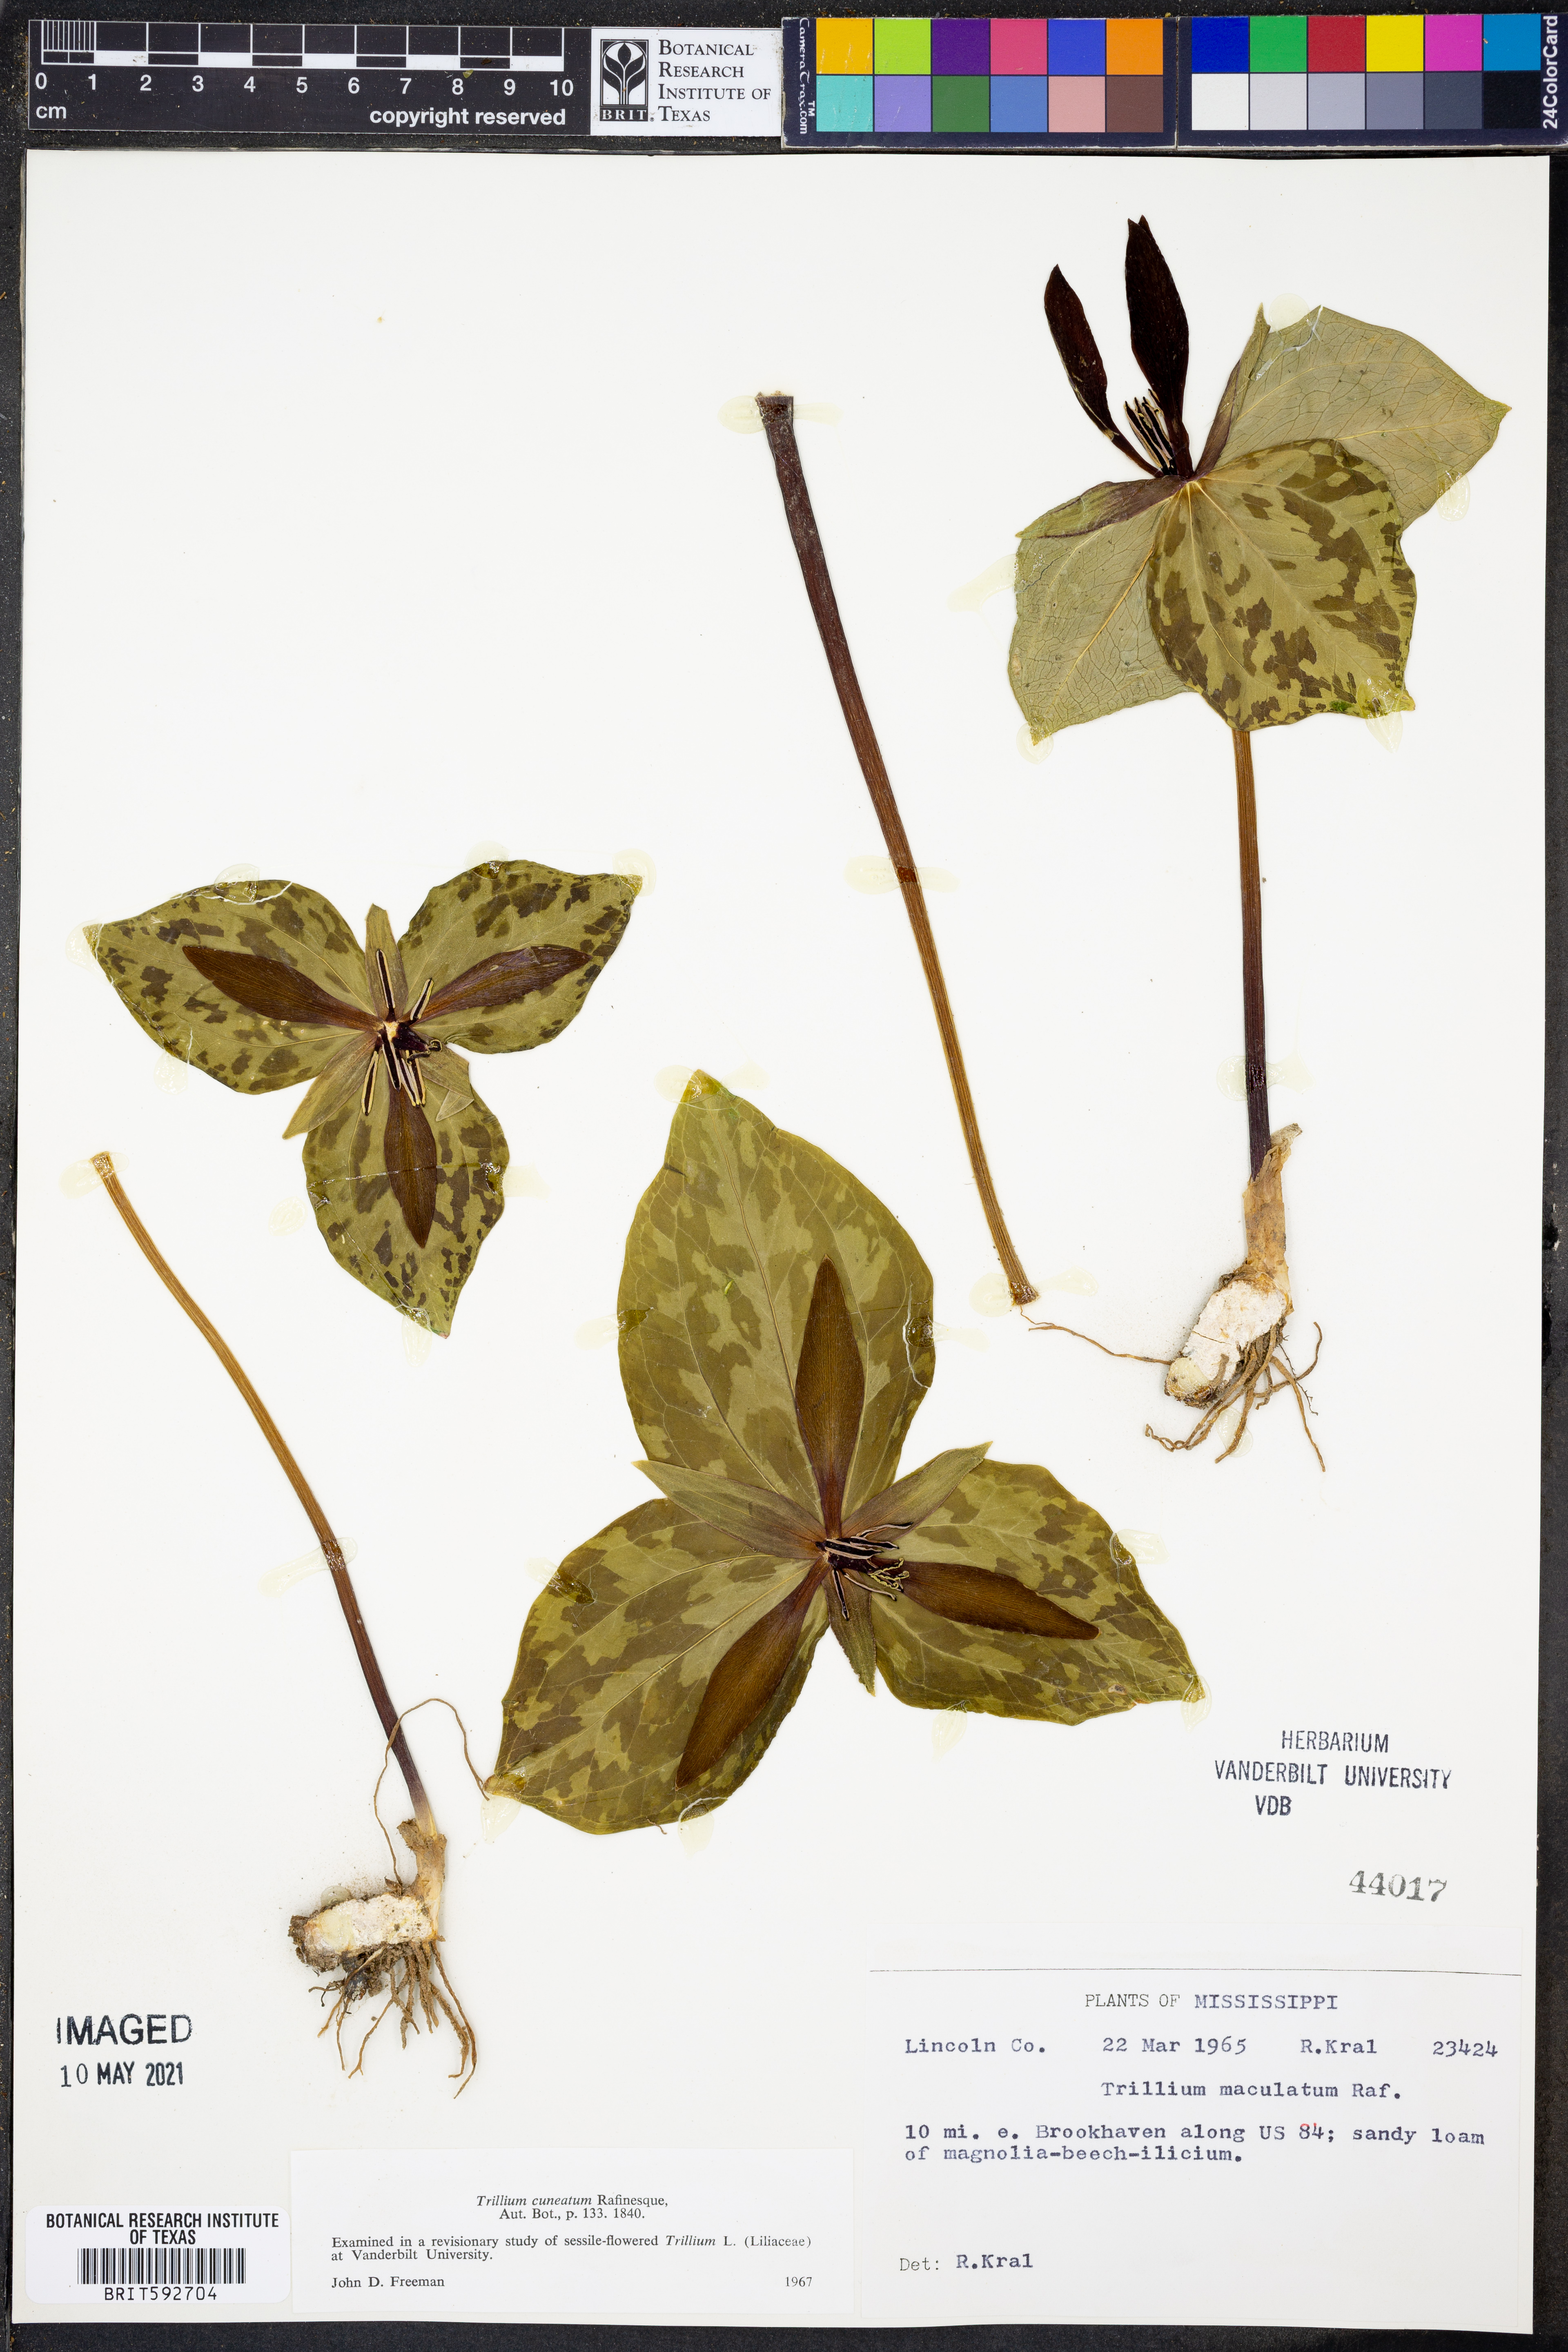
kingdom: Plantae
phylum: Tracheophyta
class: Liliopsida
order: Liliales
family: Melanthiaceae
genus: Trillium
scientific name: Trillium cuneatum
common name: Cuneate trillium
